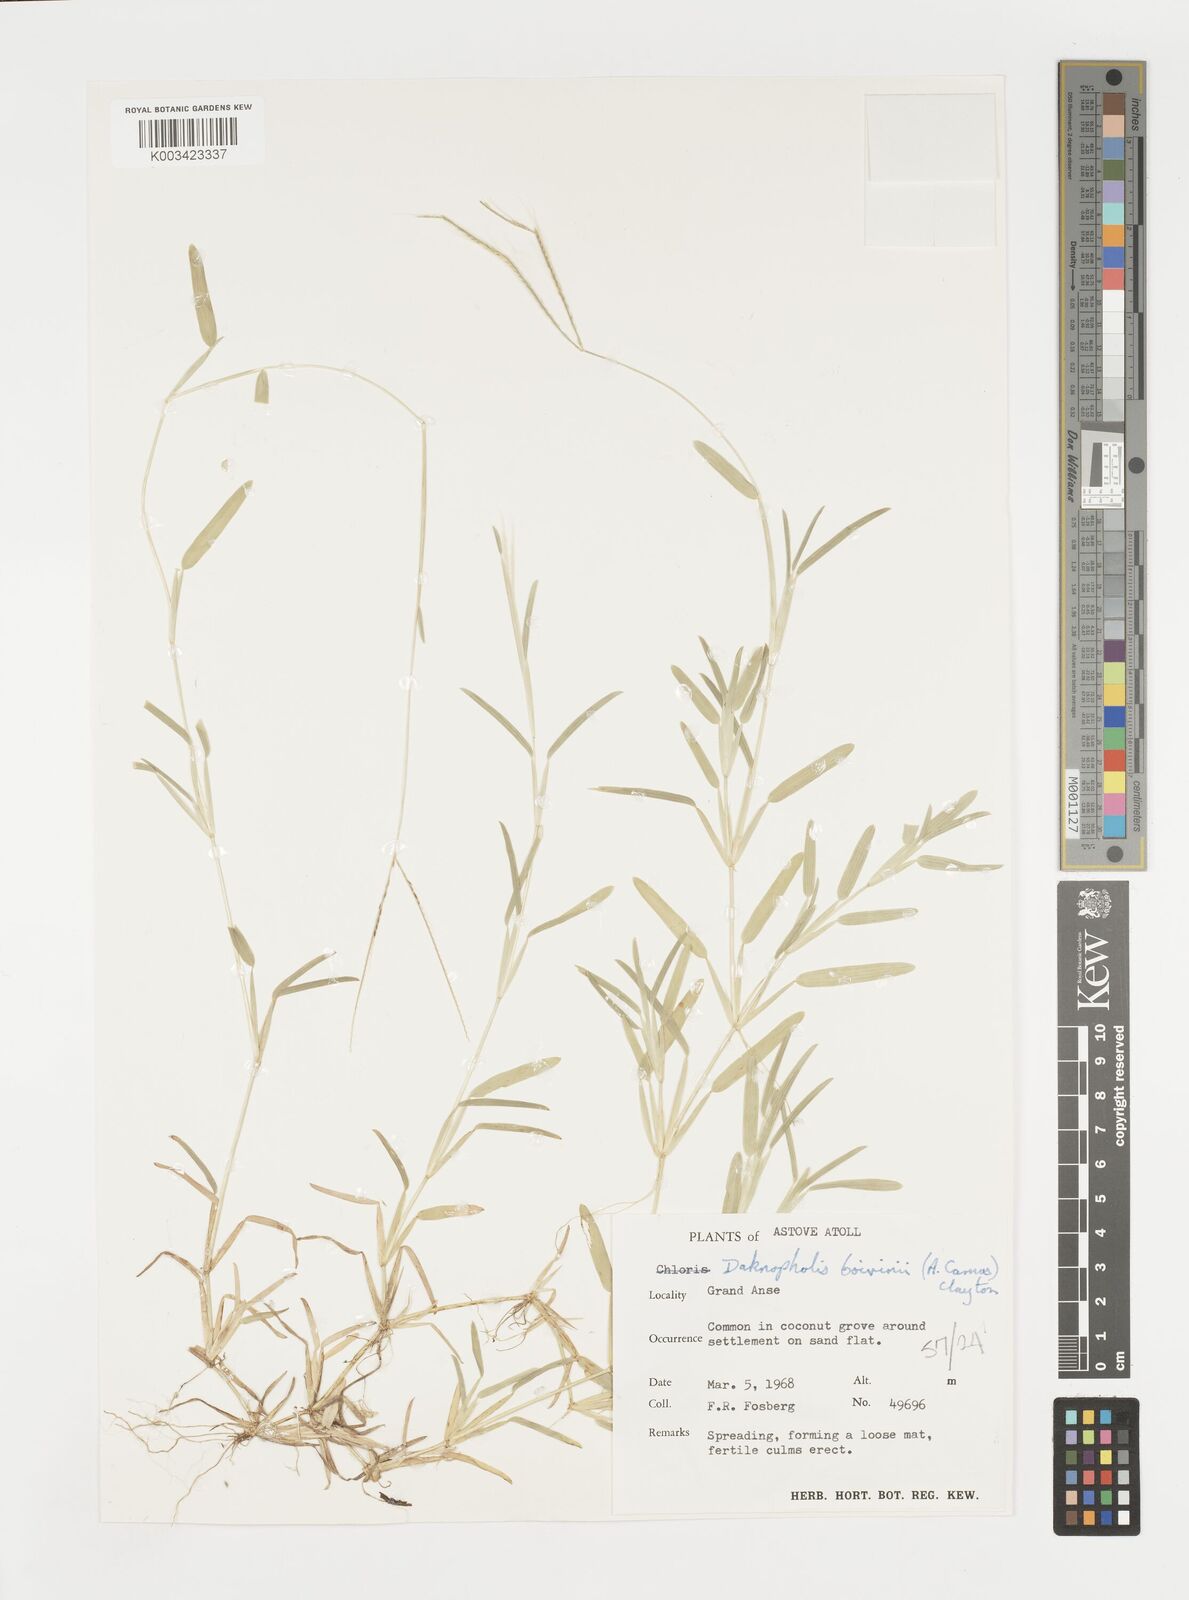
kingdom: Plantae
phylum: Tracheophyta
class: Liliopsida
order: Poales
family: Poaceae
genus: Daknopholis
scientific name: Daknopholis boivinii
